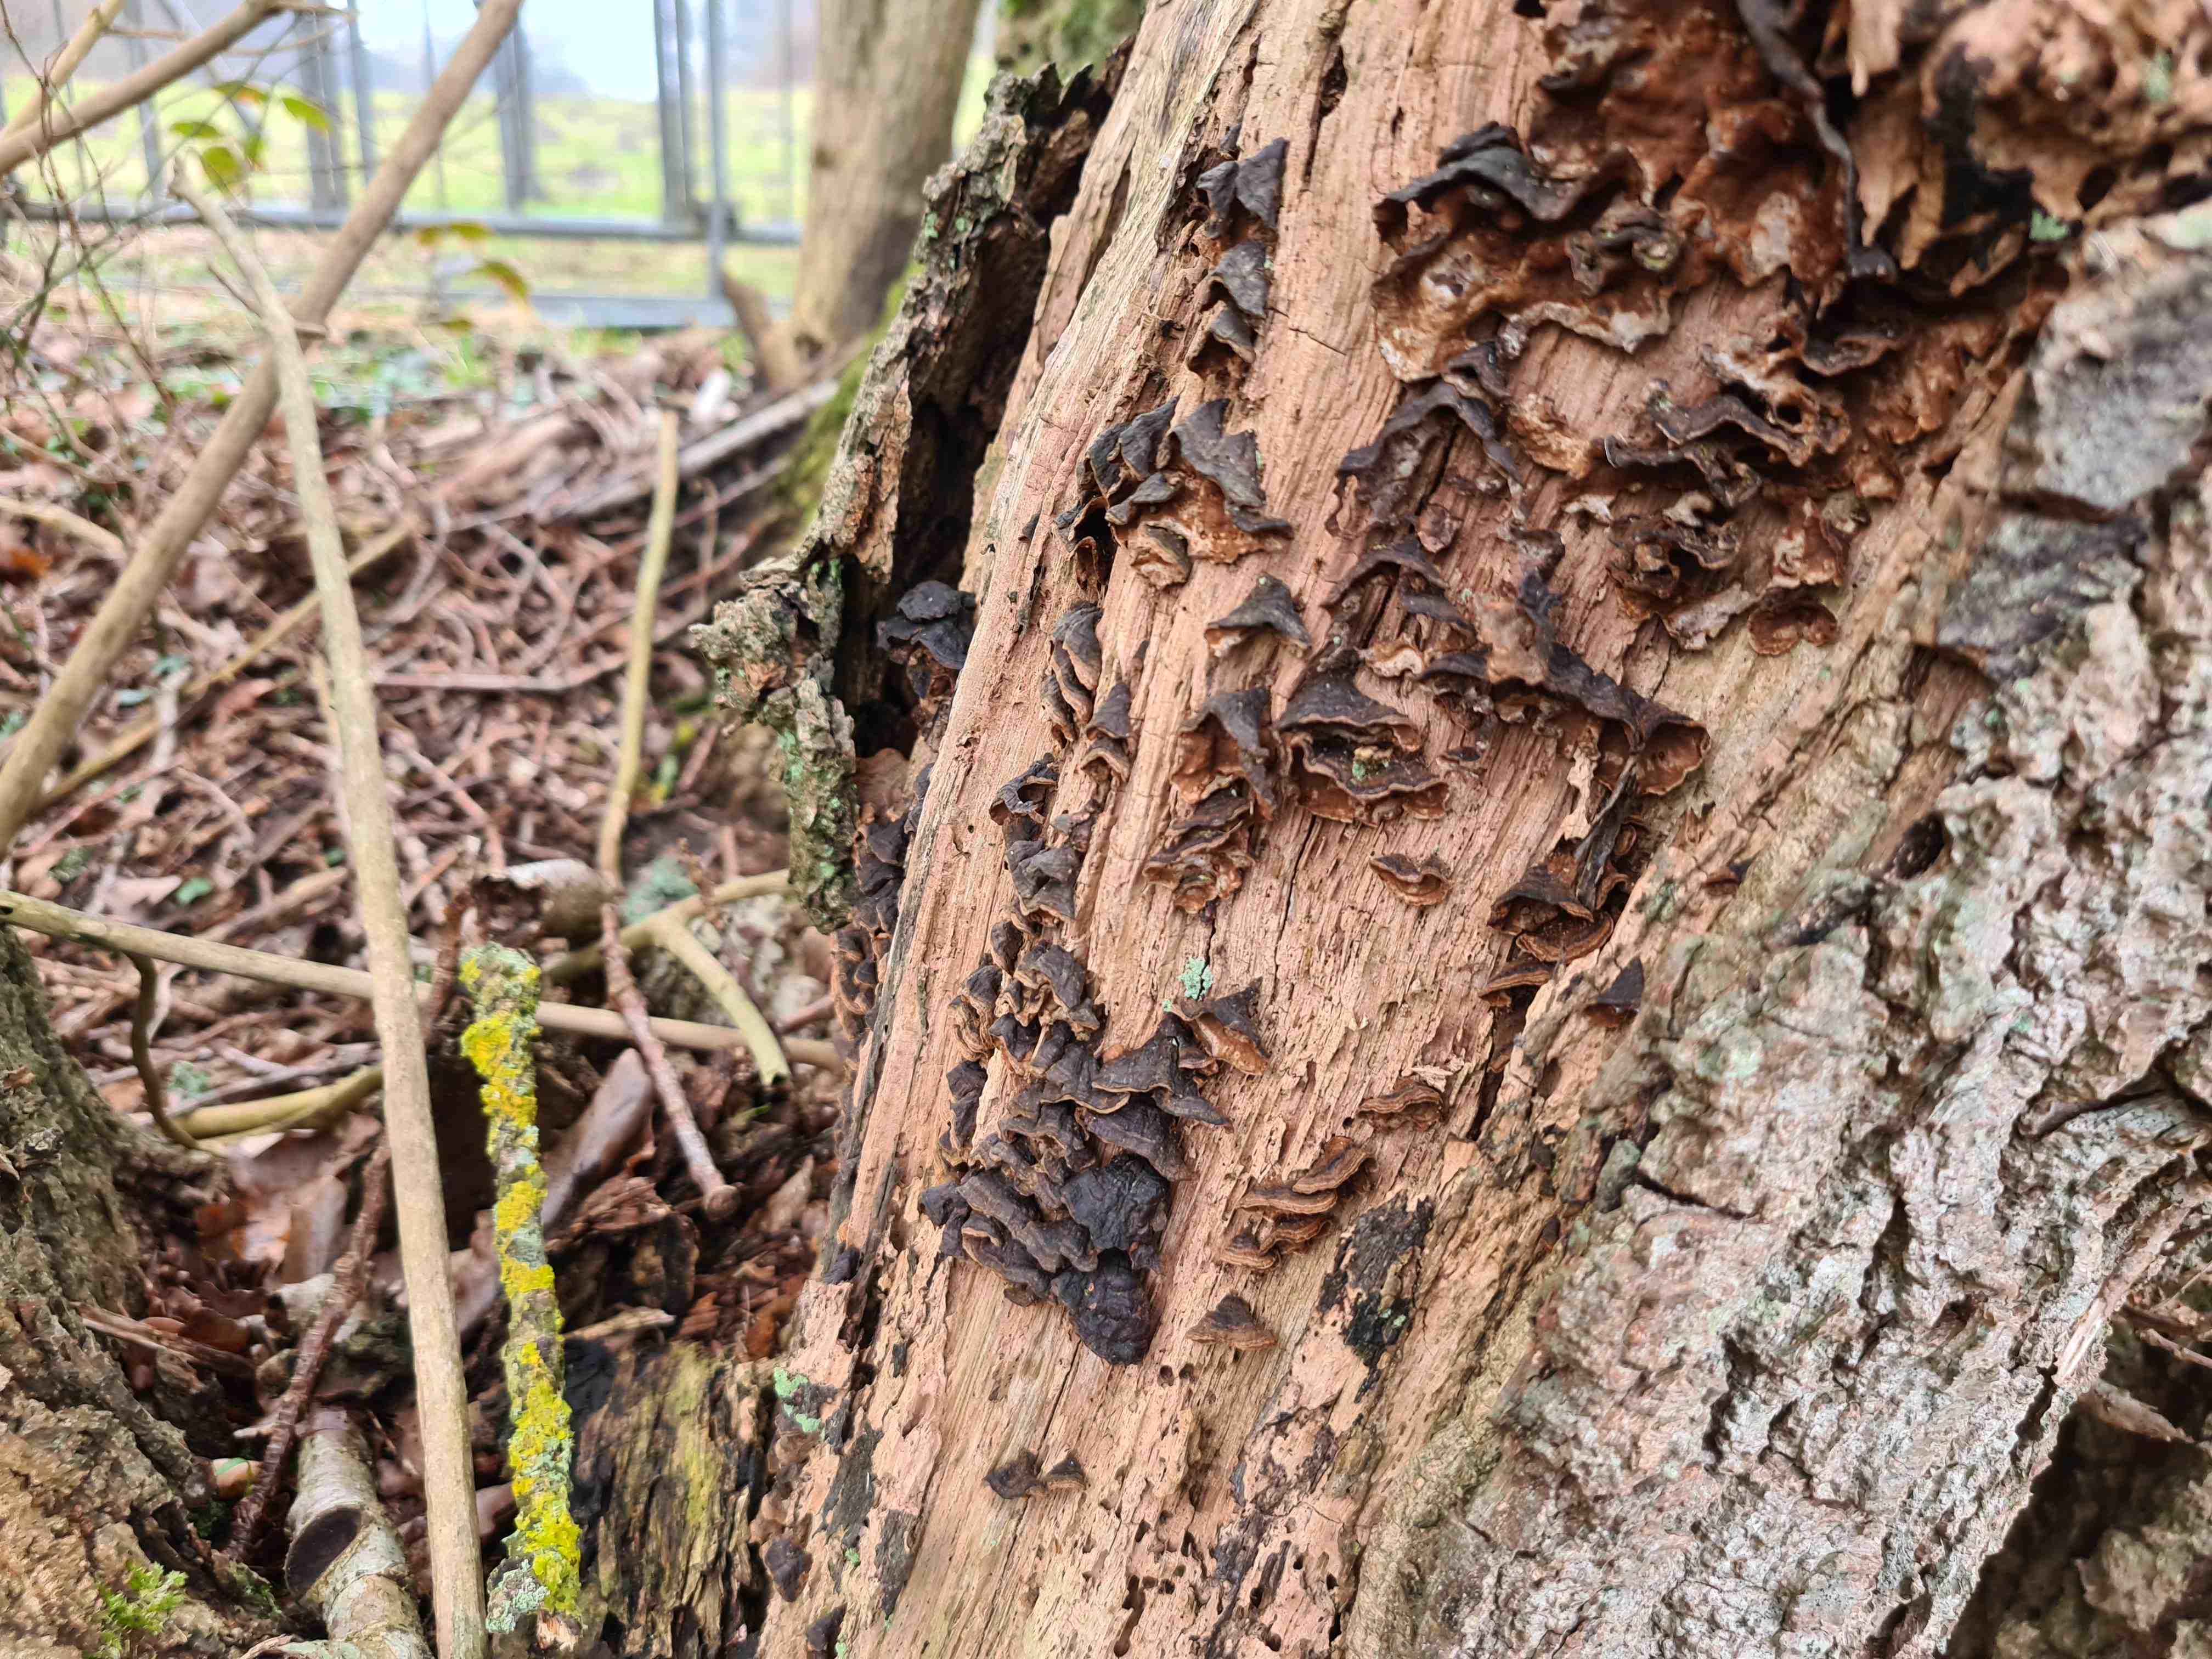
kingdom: Fungi
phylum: Basidiomycota
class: Agaricomycetes
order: Hymenochaetales
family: Hymenochaetaceae
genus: Hymenochaete
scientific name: Hymenochaete rubiginosa
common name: stiv ruslædersvamp
